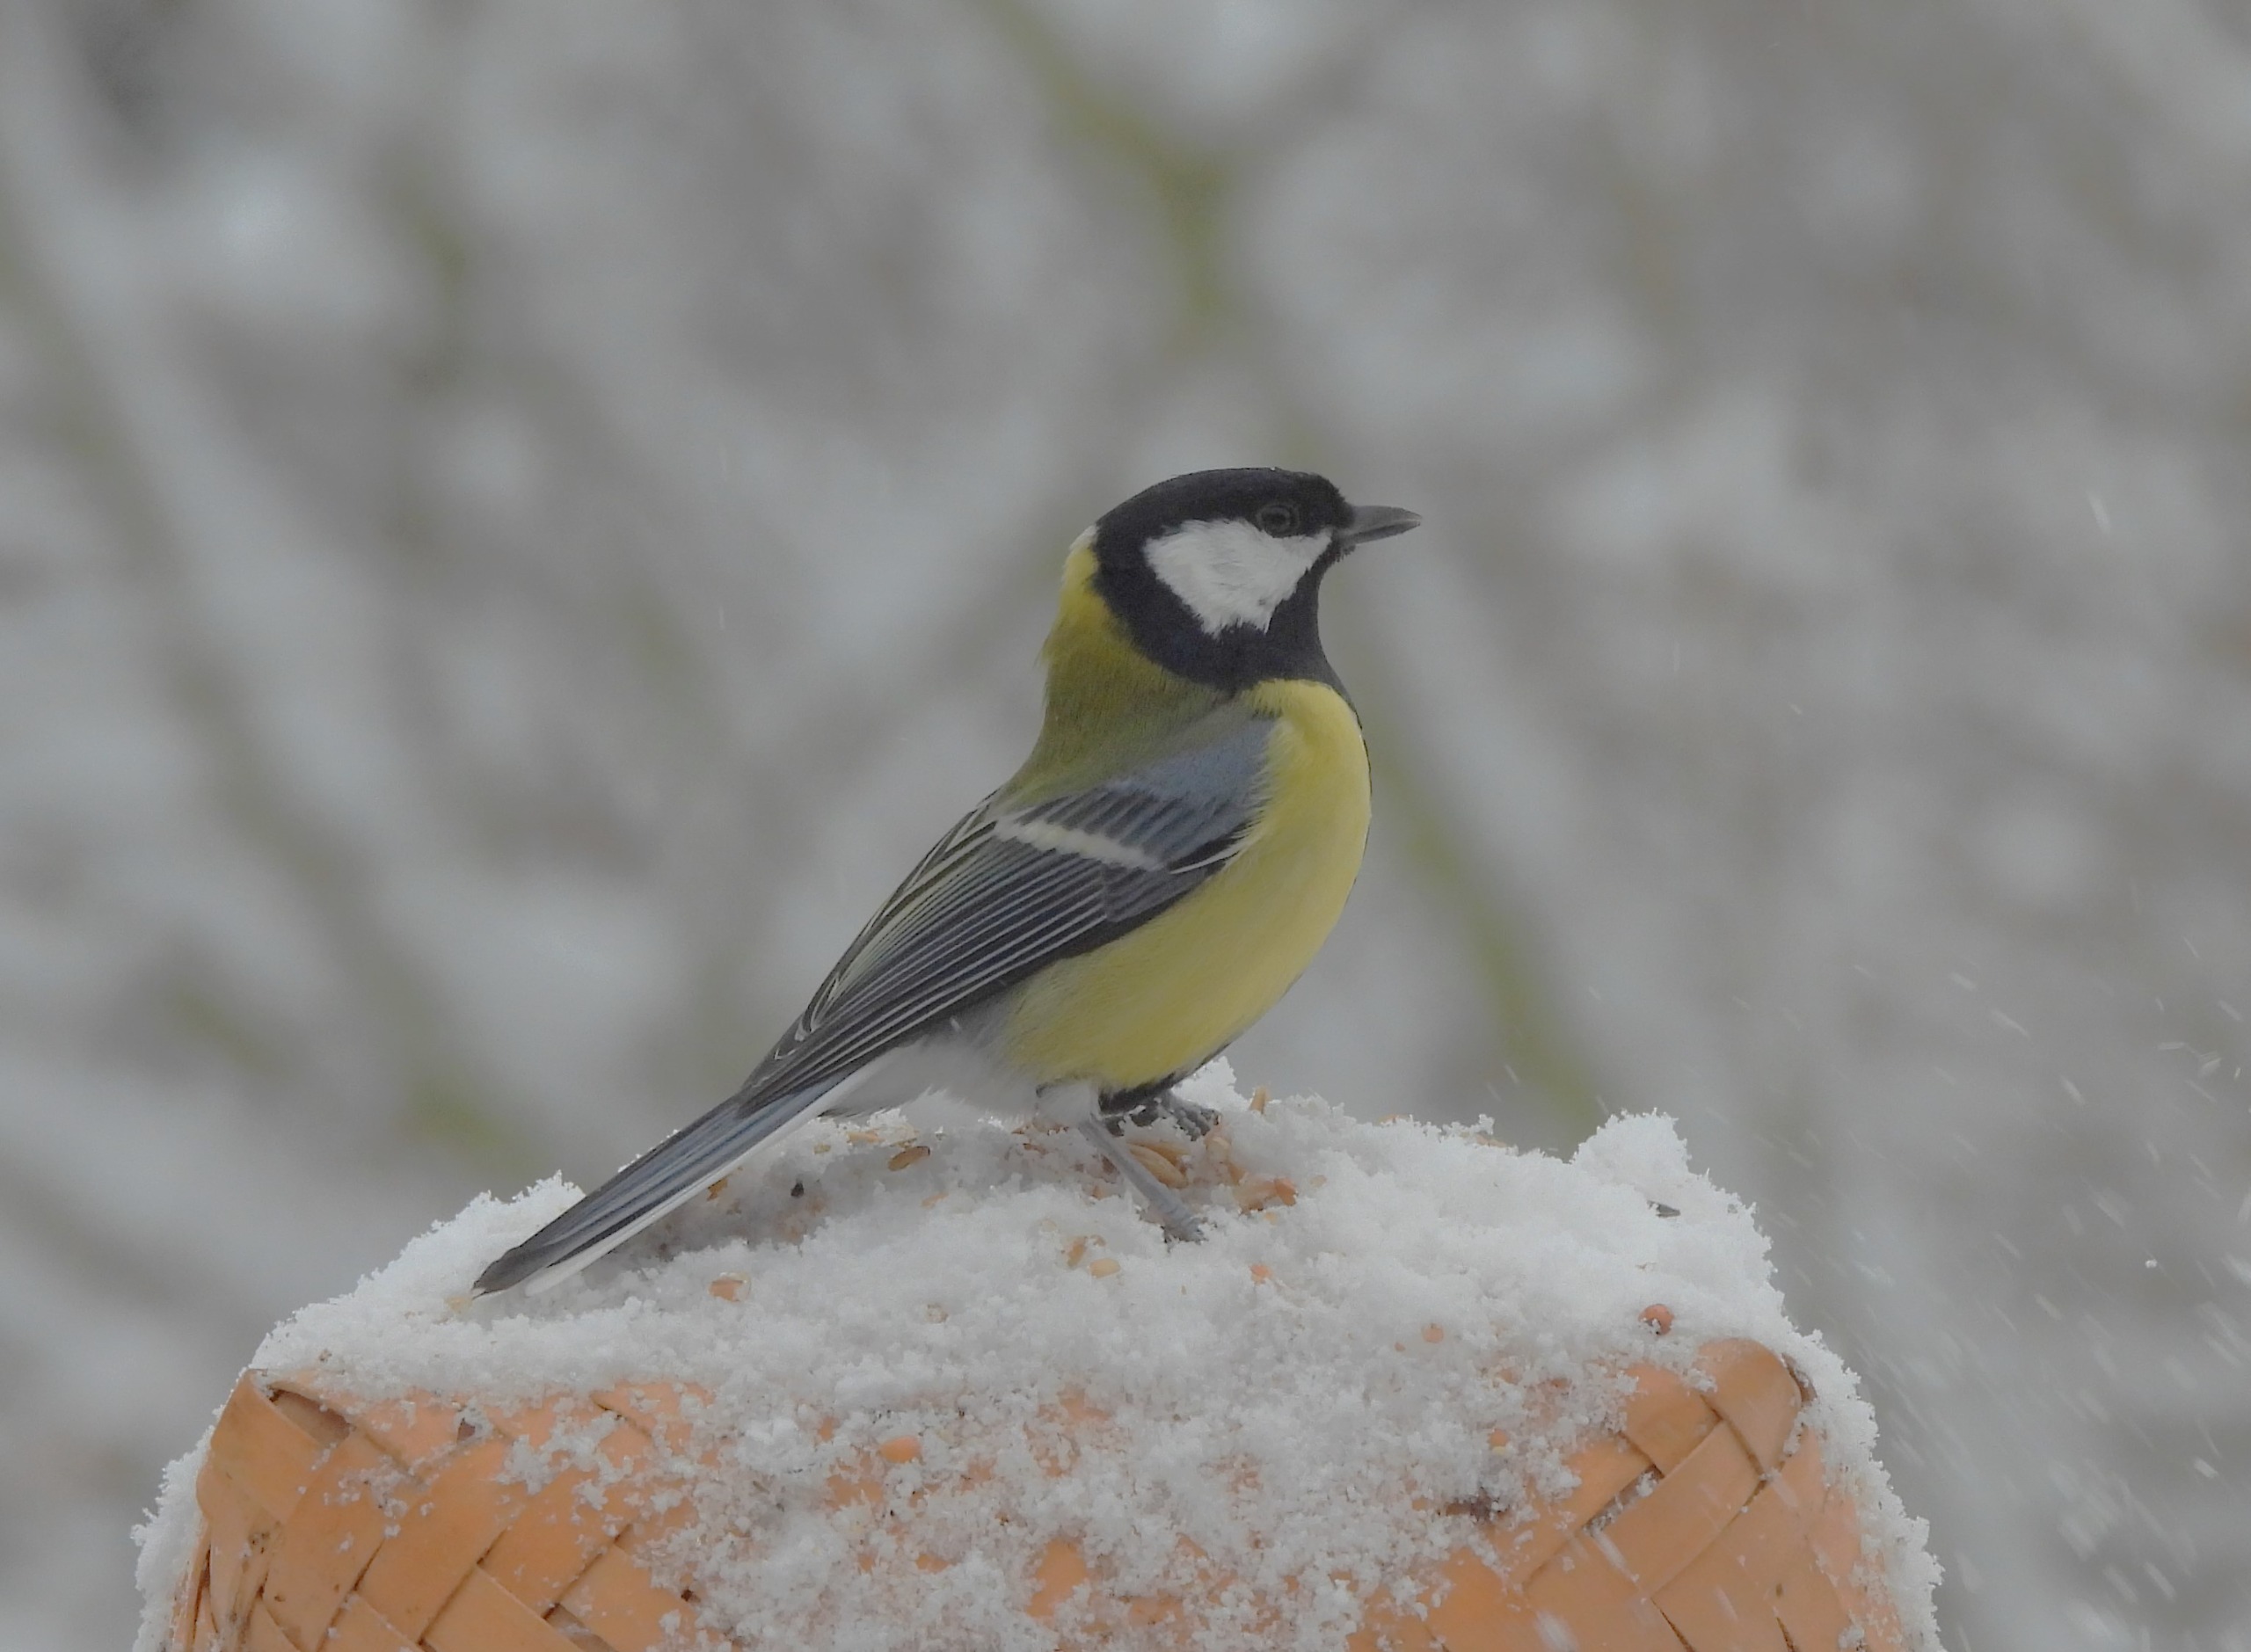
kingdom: Animalia
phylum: Chordata
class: Aves
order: Passeriformes
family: Paridae
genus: Parus
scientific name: Parus major
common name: Musvit
